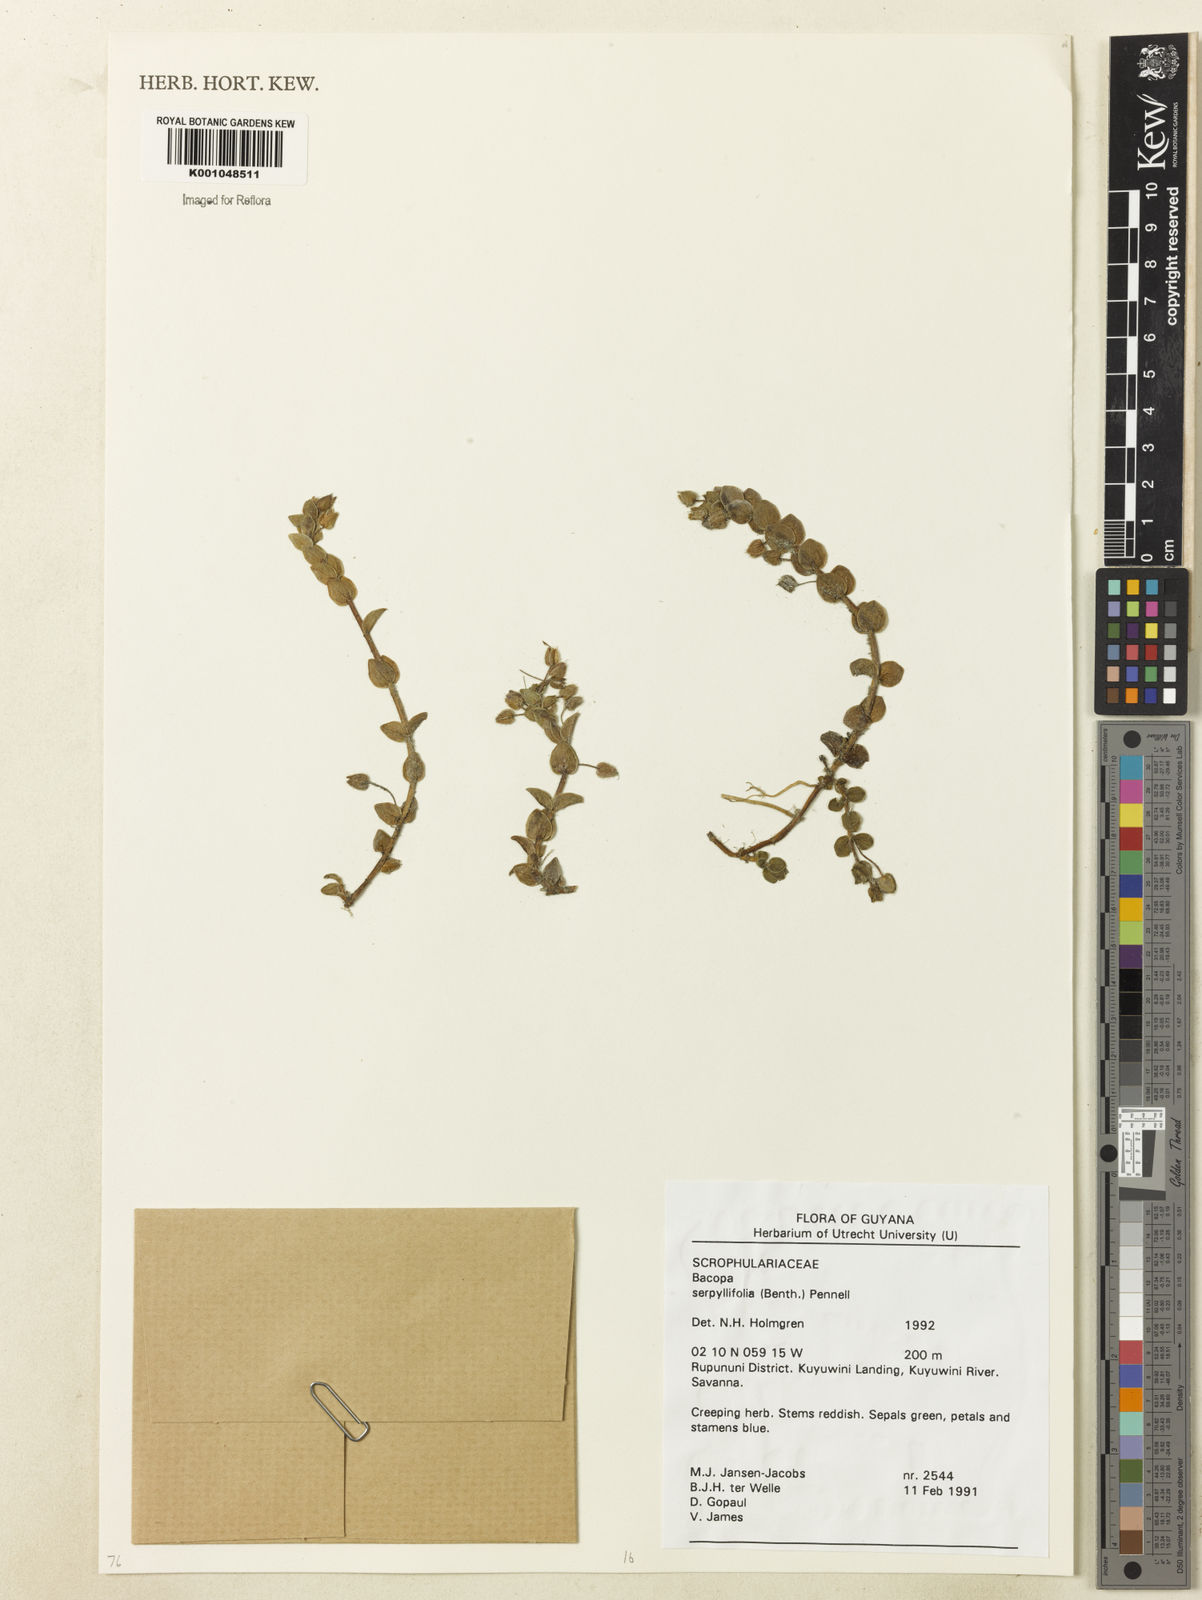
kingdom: Plantae
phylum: Tracheophyta
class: Magnoliopsida
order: Lamiales
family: Plantaginaceae
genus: Bacopa
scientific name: Bacopa serpyllifolia
